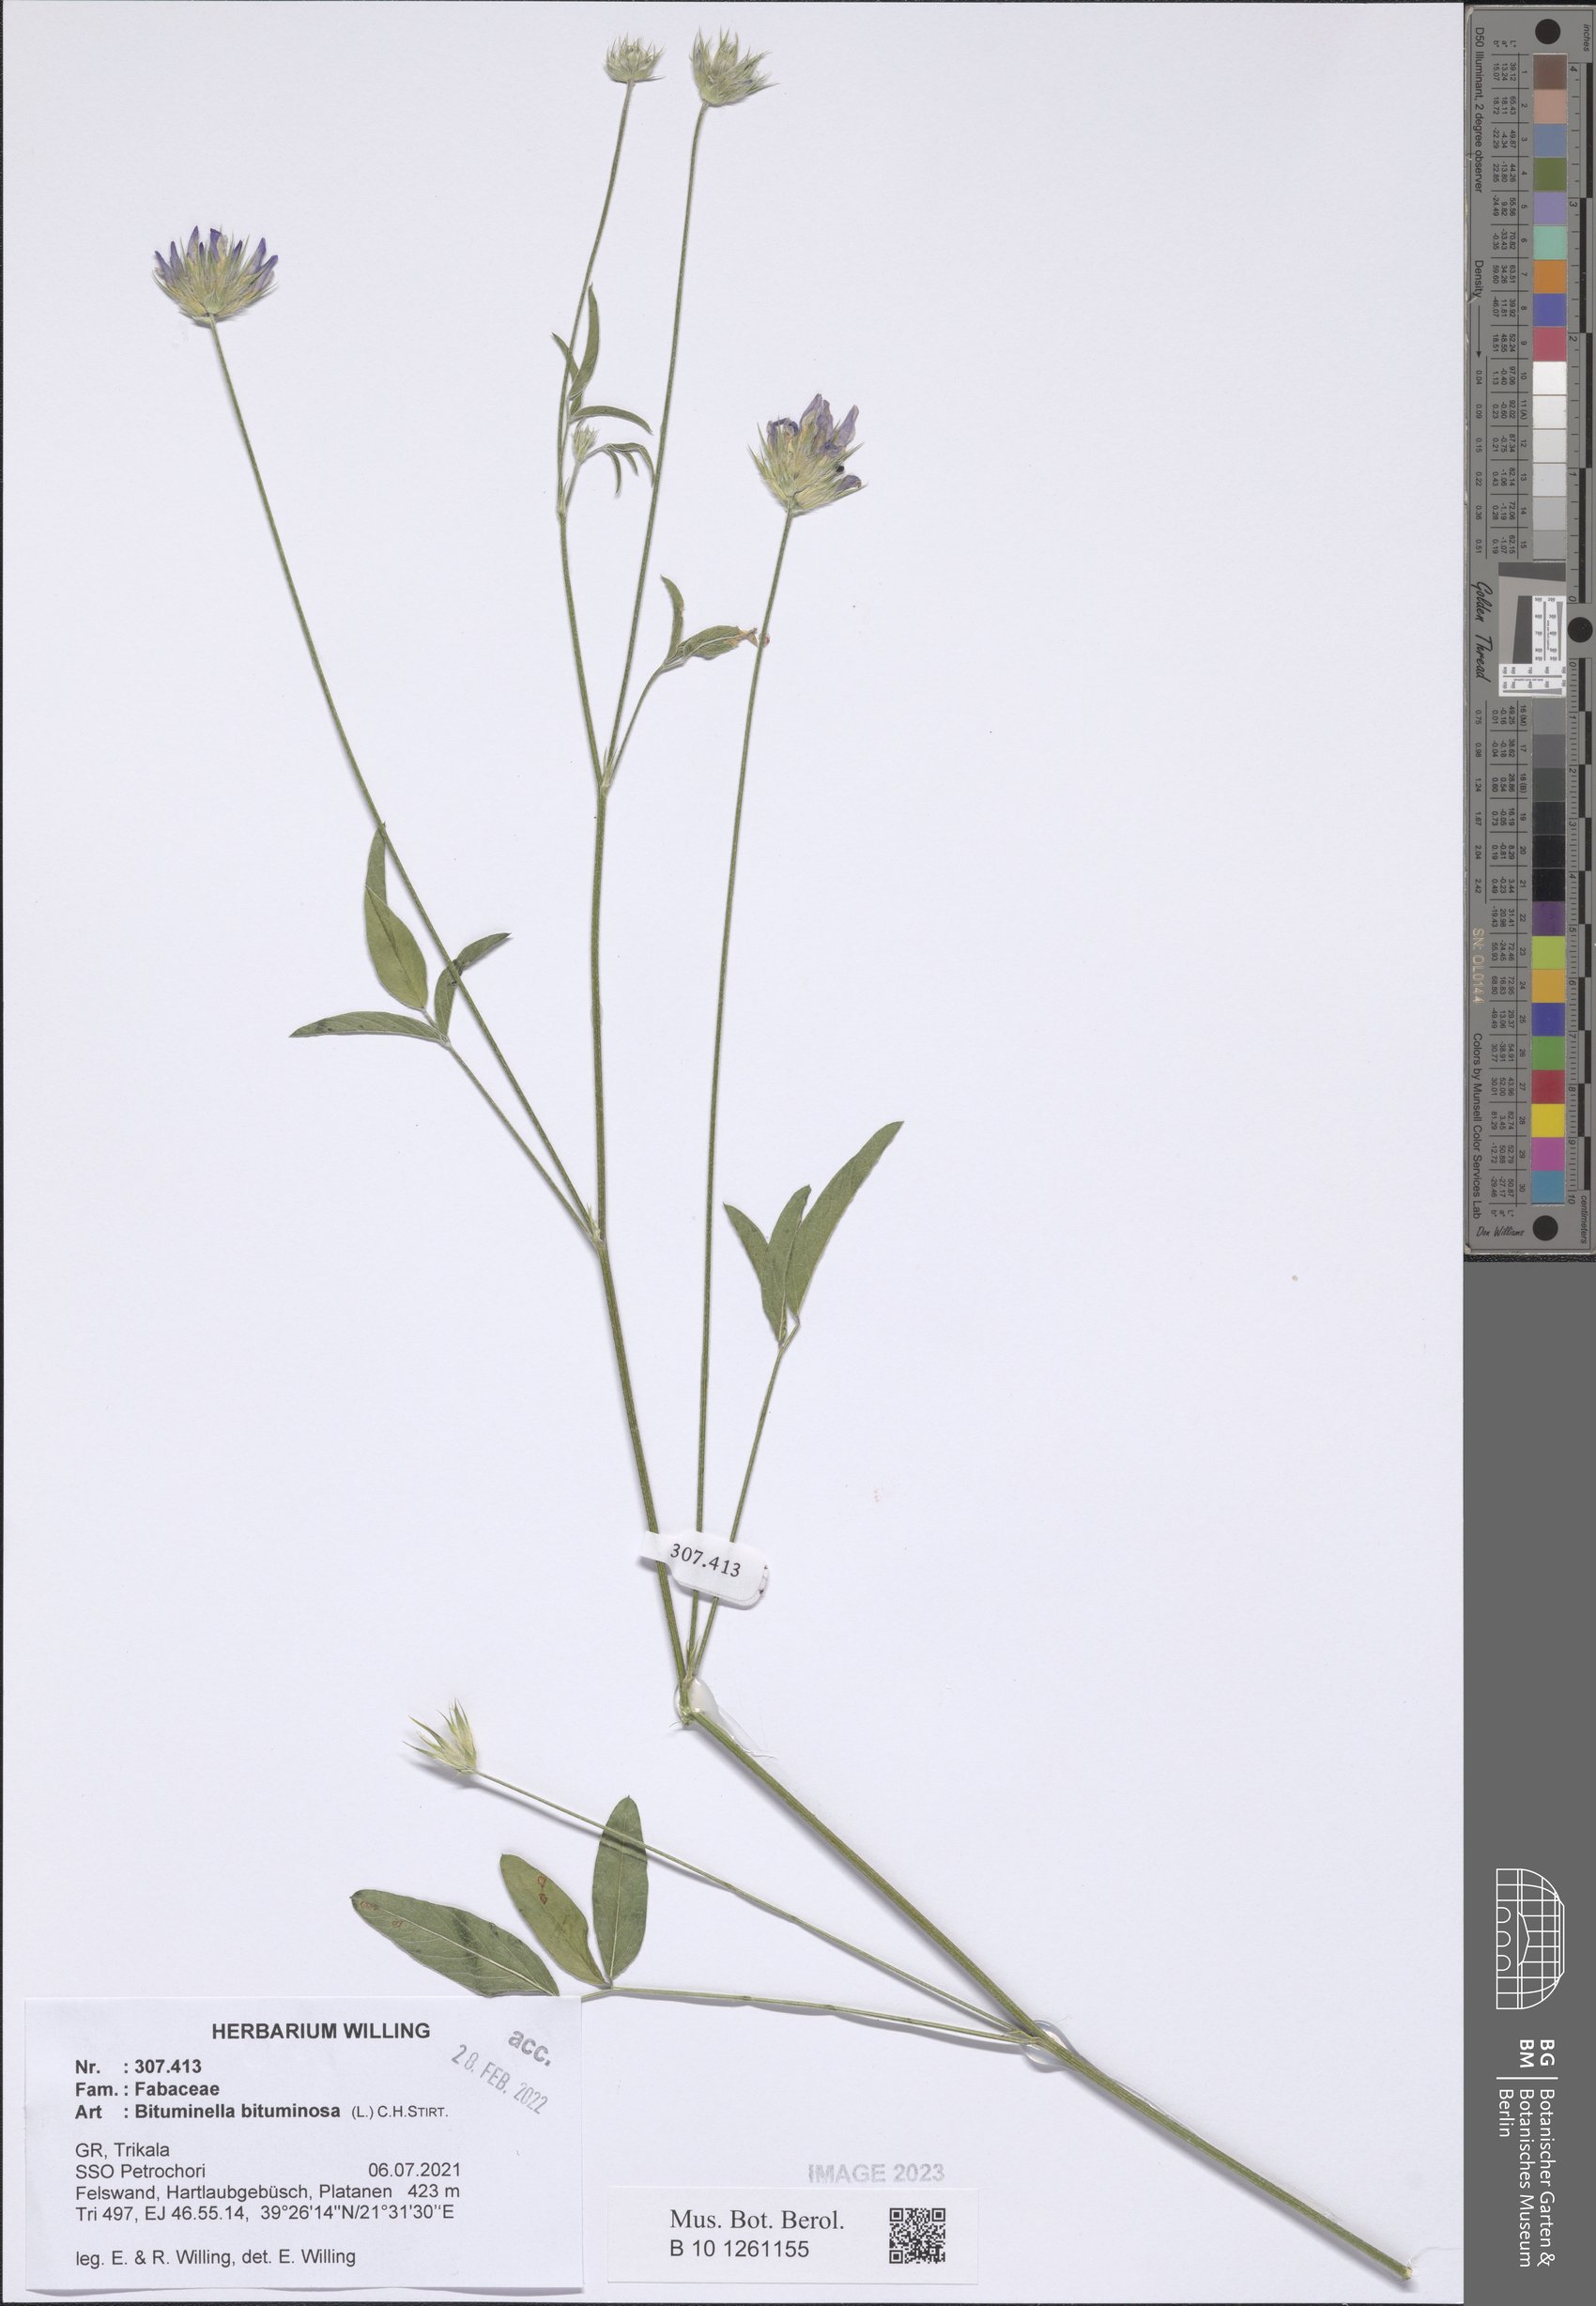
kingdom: Plantae
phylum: Tracheophyta
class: Magnoliopsida
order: Fabales
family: Fabaceae
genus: Bituminaria
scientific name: Bituminaria bituminosa
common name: Arabian pea
